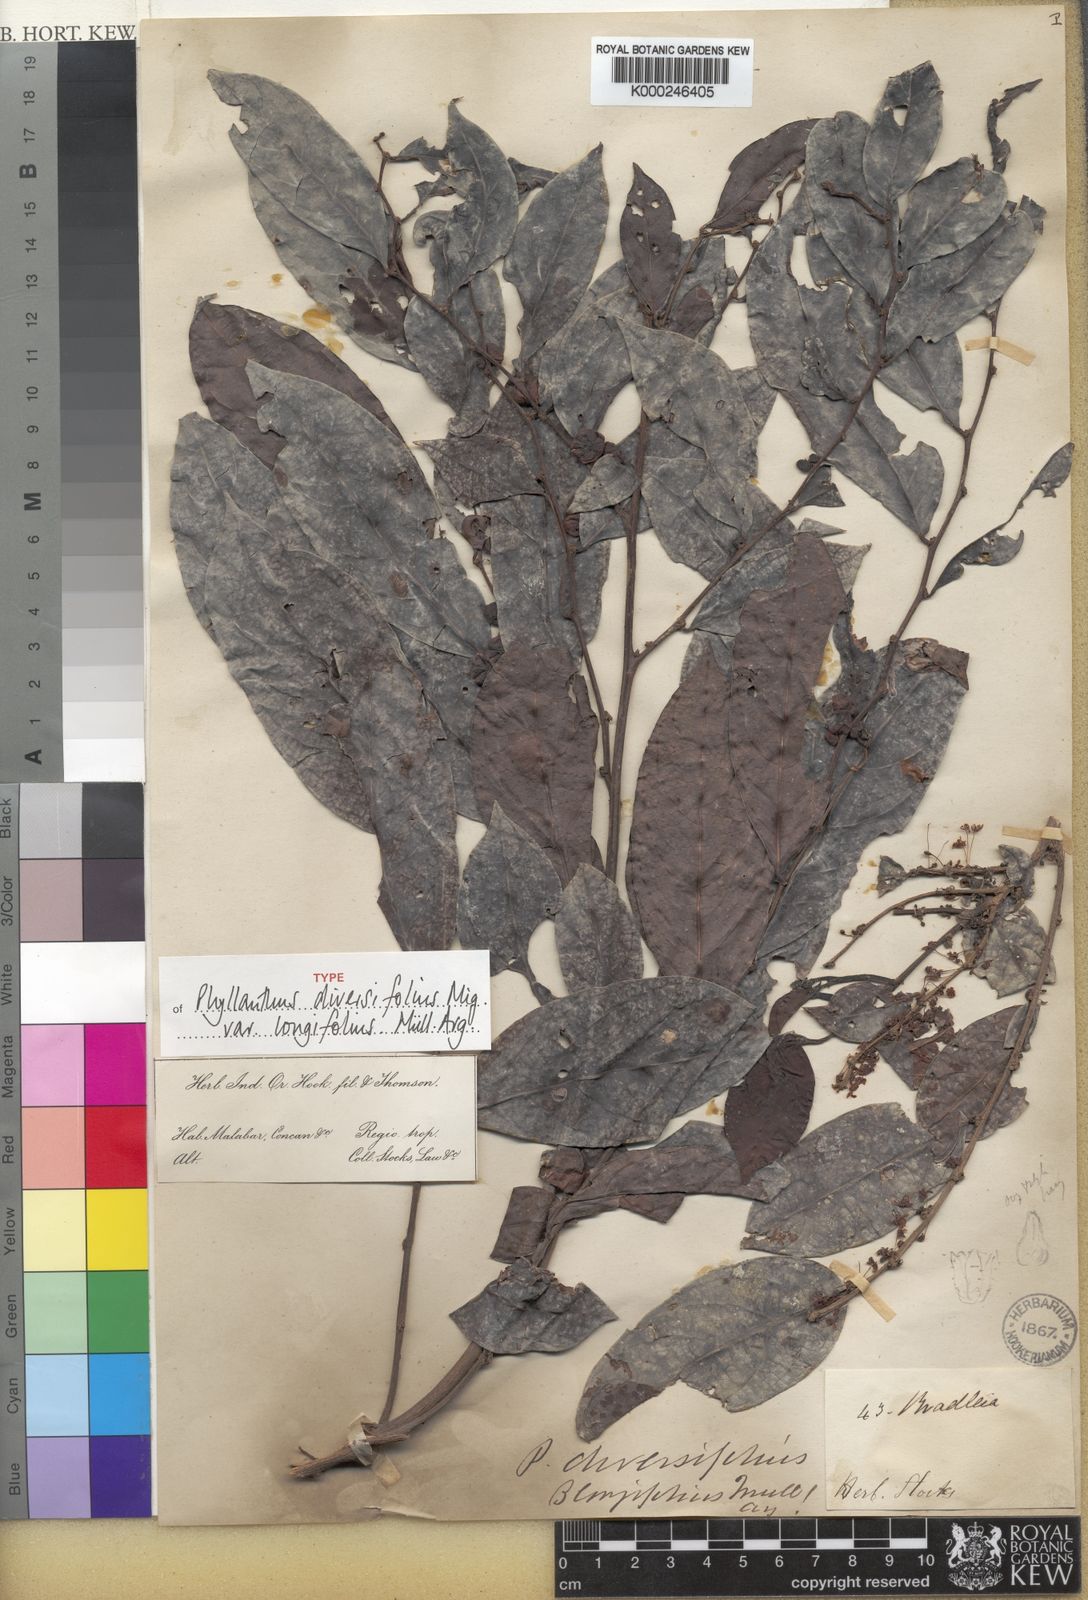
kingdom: Plantae
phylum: Tracheophyta
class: Magnoliopsida
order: Malpighiales
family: Phyllanthaceae
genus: Glochidion
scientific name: Glochidion ellipticum
